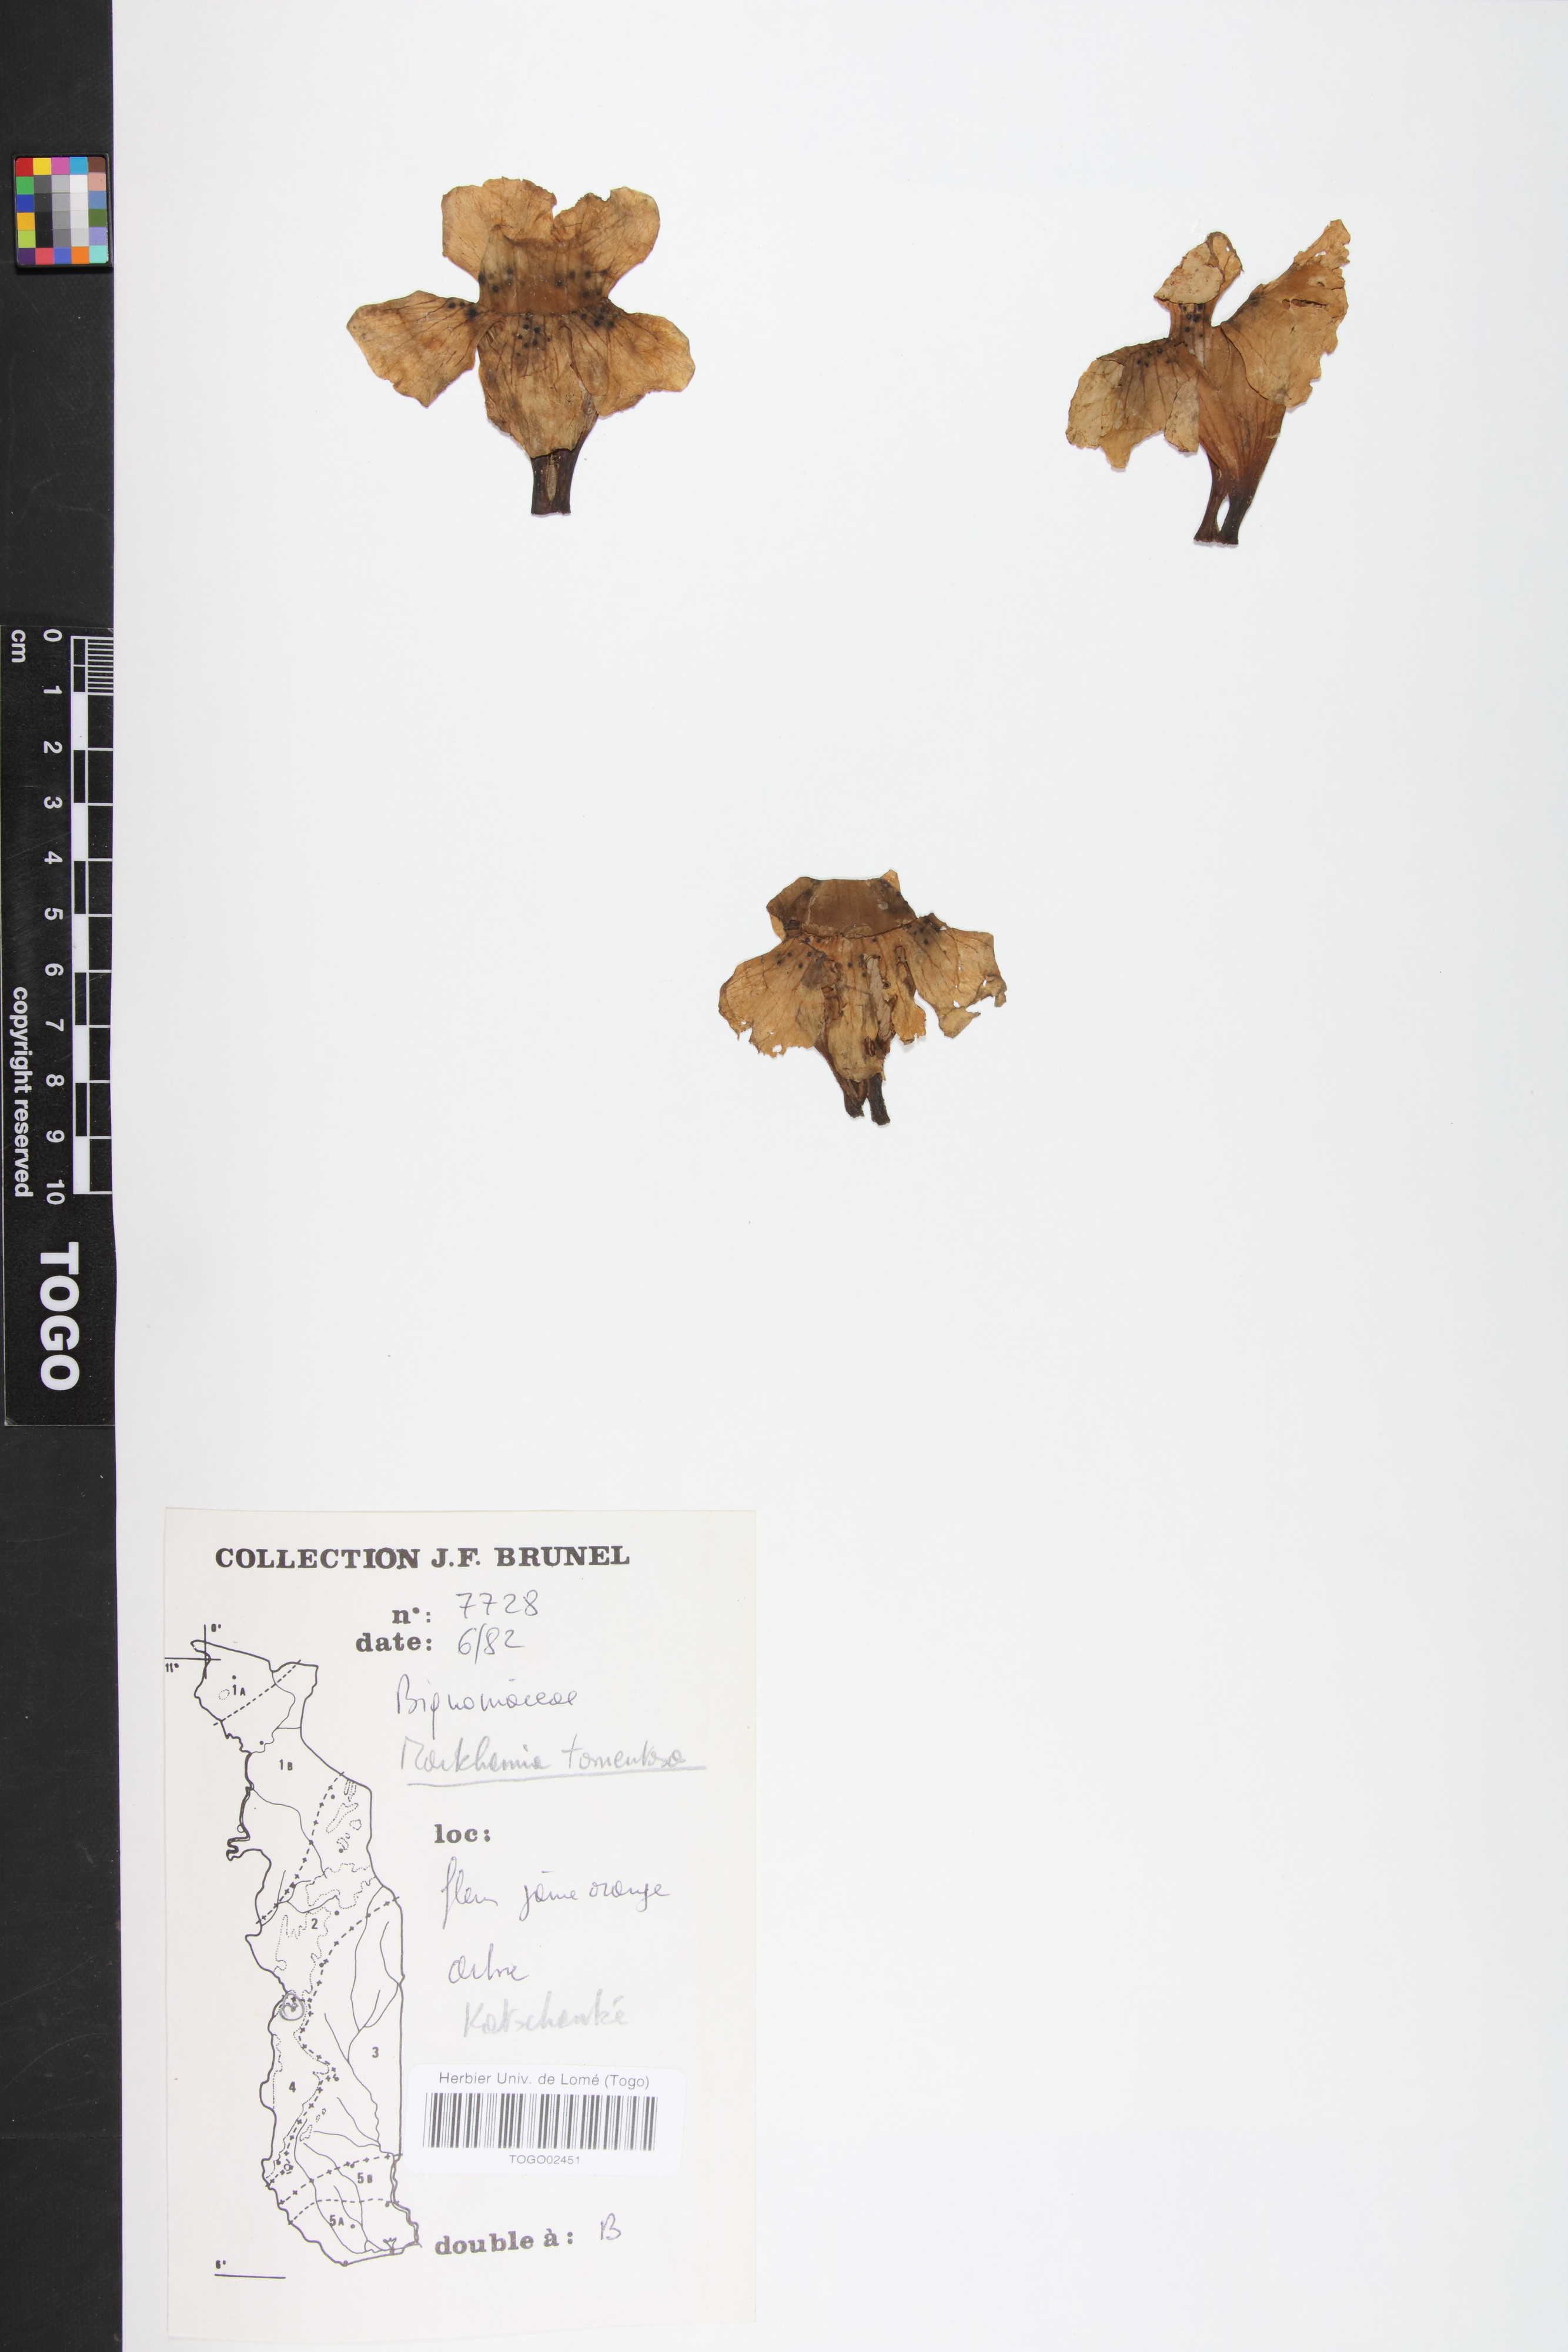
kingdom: Plantae
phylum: Tracheophyta
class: Magnoliopsida
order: Lamiales
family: Bignoniaceae
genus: Markhamia
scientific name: Markhamia tomentosa
